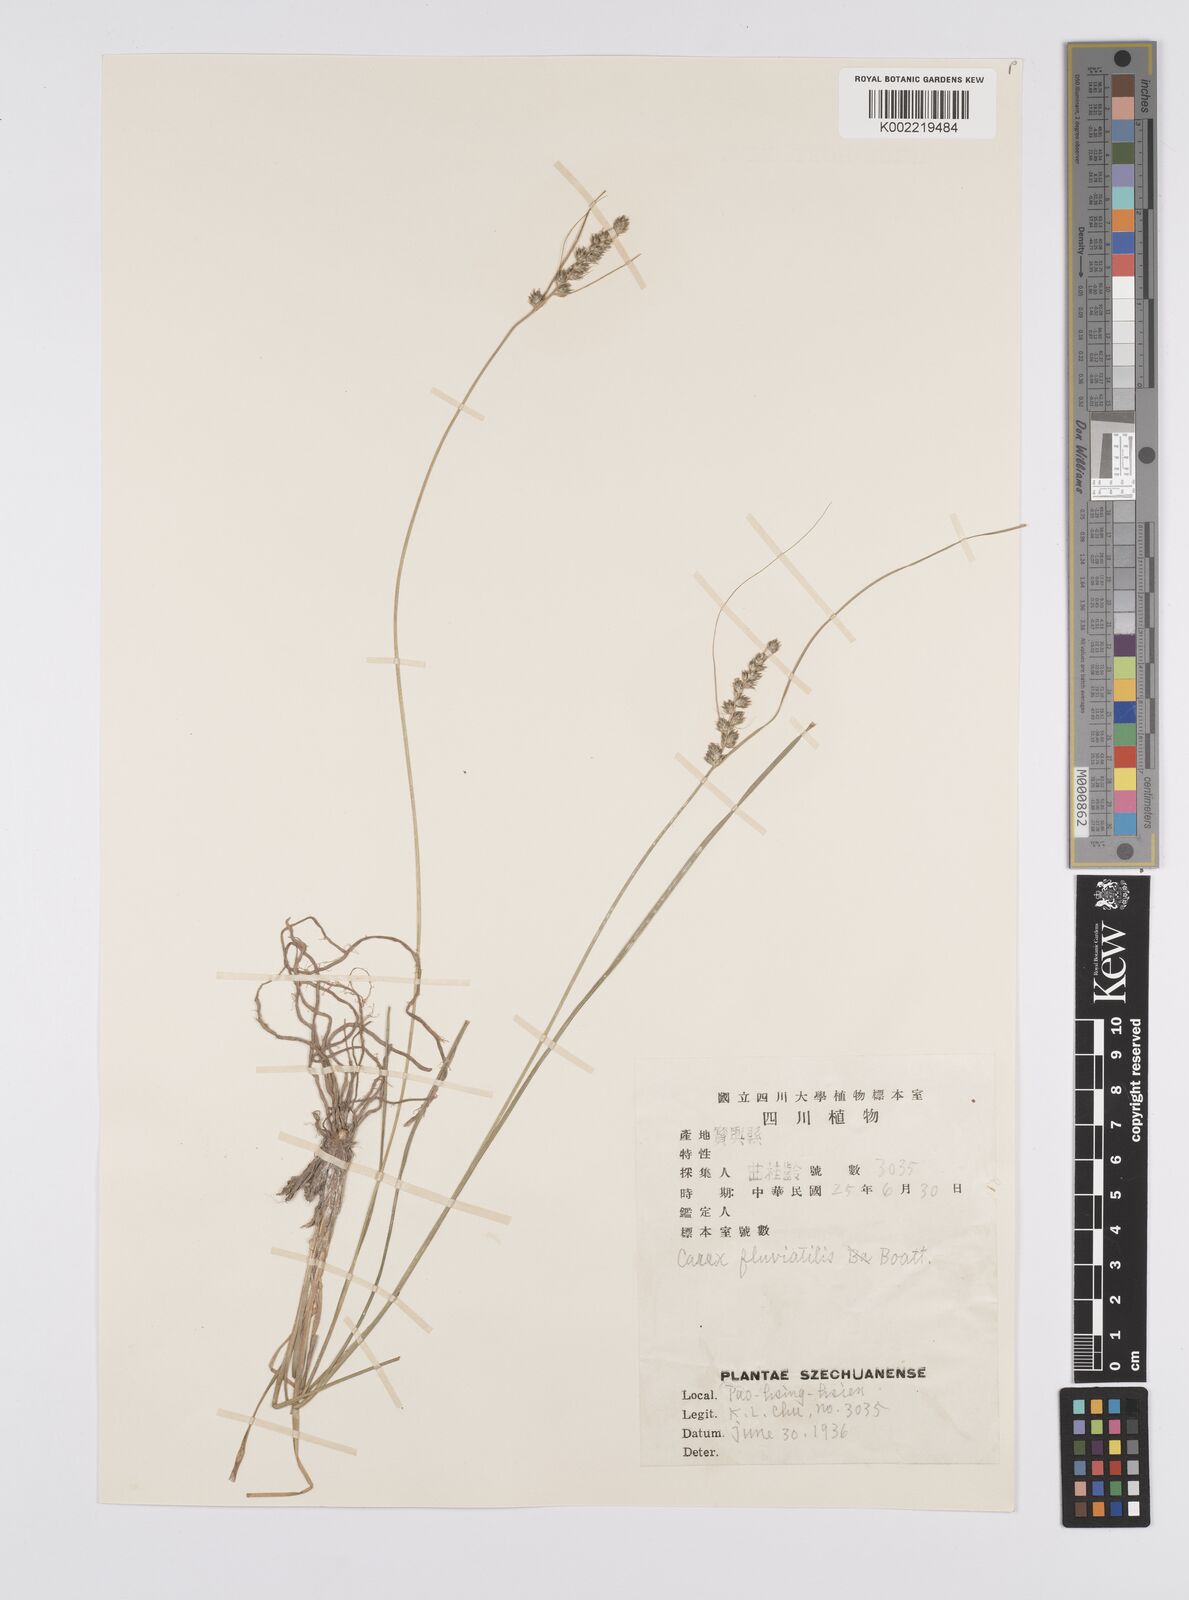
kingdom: Plantae
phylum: Tracheophyta
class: Liliopsida
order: Poales
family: Cyperaceae
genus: Carex
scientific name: Carex unisexualis
